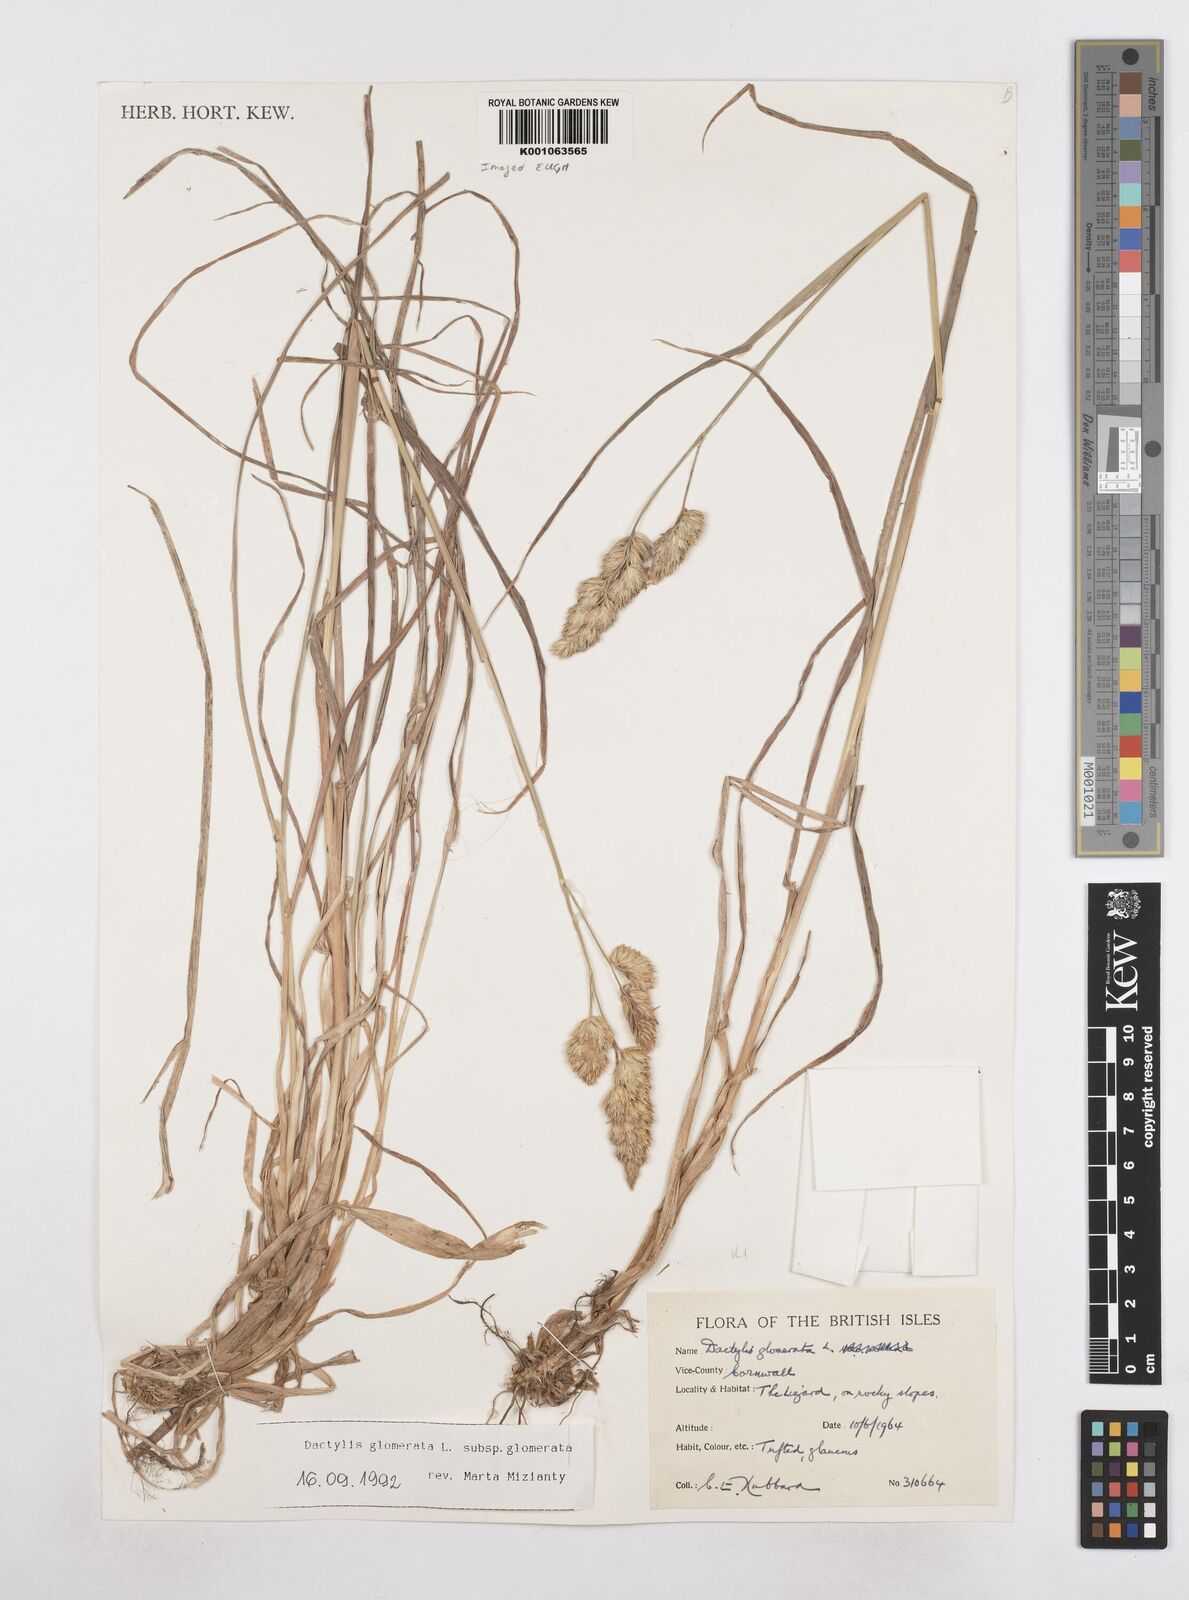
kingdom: Plantae
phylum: Tracheophyta
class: Liliopsida
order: Poales
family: Poaceae
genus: Dactylis
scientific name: Dactylis glomerata
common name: Orchardgrass
